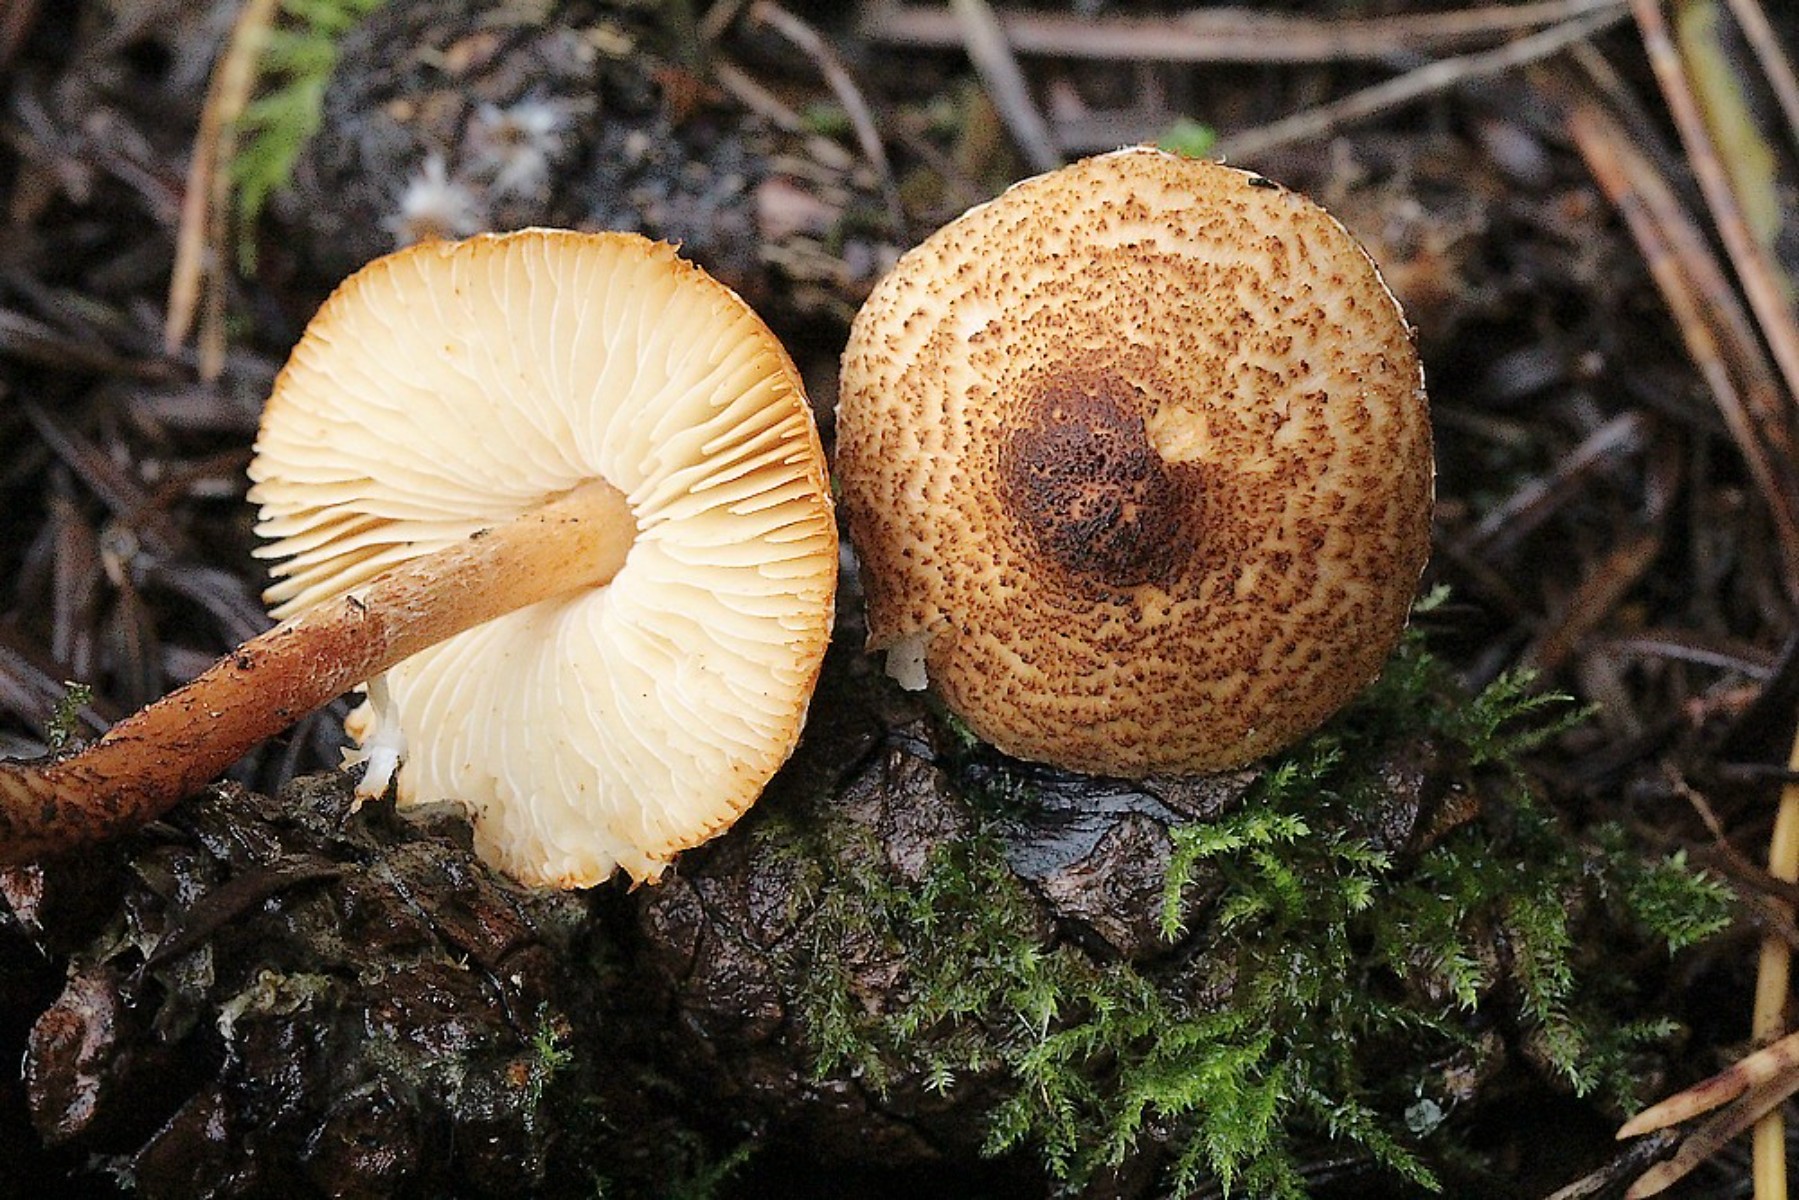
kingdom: Fungi
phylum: Basidiomycota
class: Agaricomycetes
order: Agaricales
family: Agaricaceae
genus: Lepiota
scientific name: Lepiota castanea
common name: kastaniebrun parasolhat
